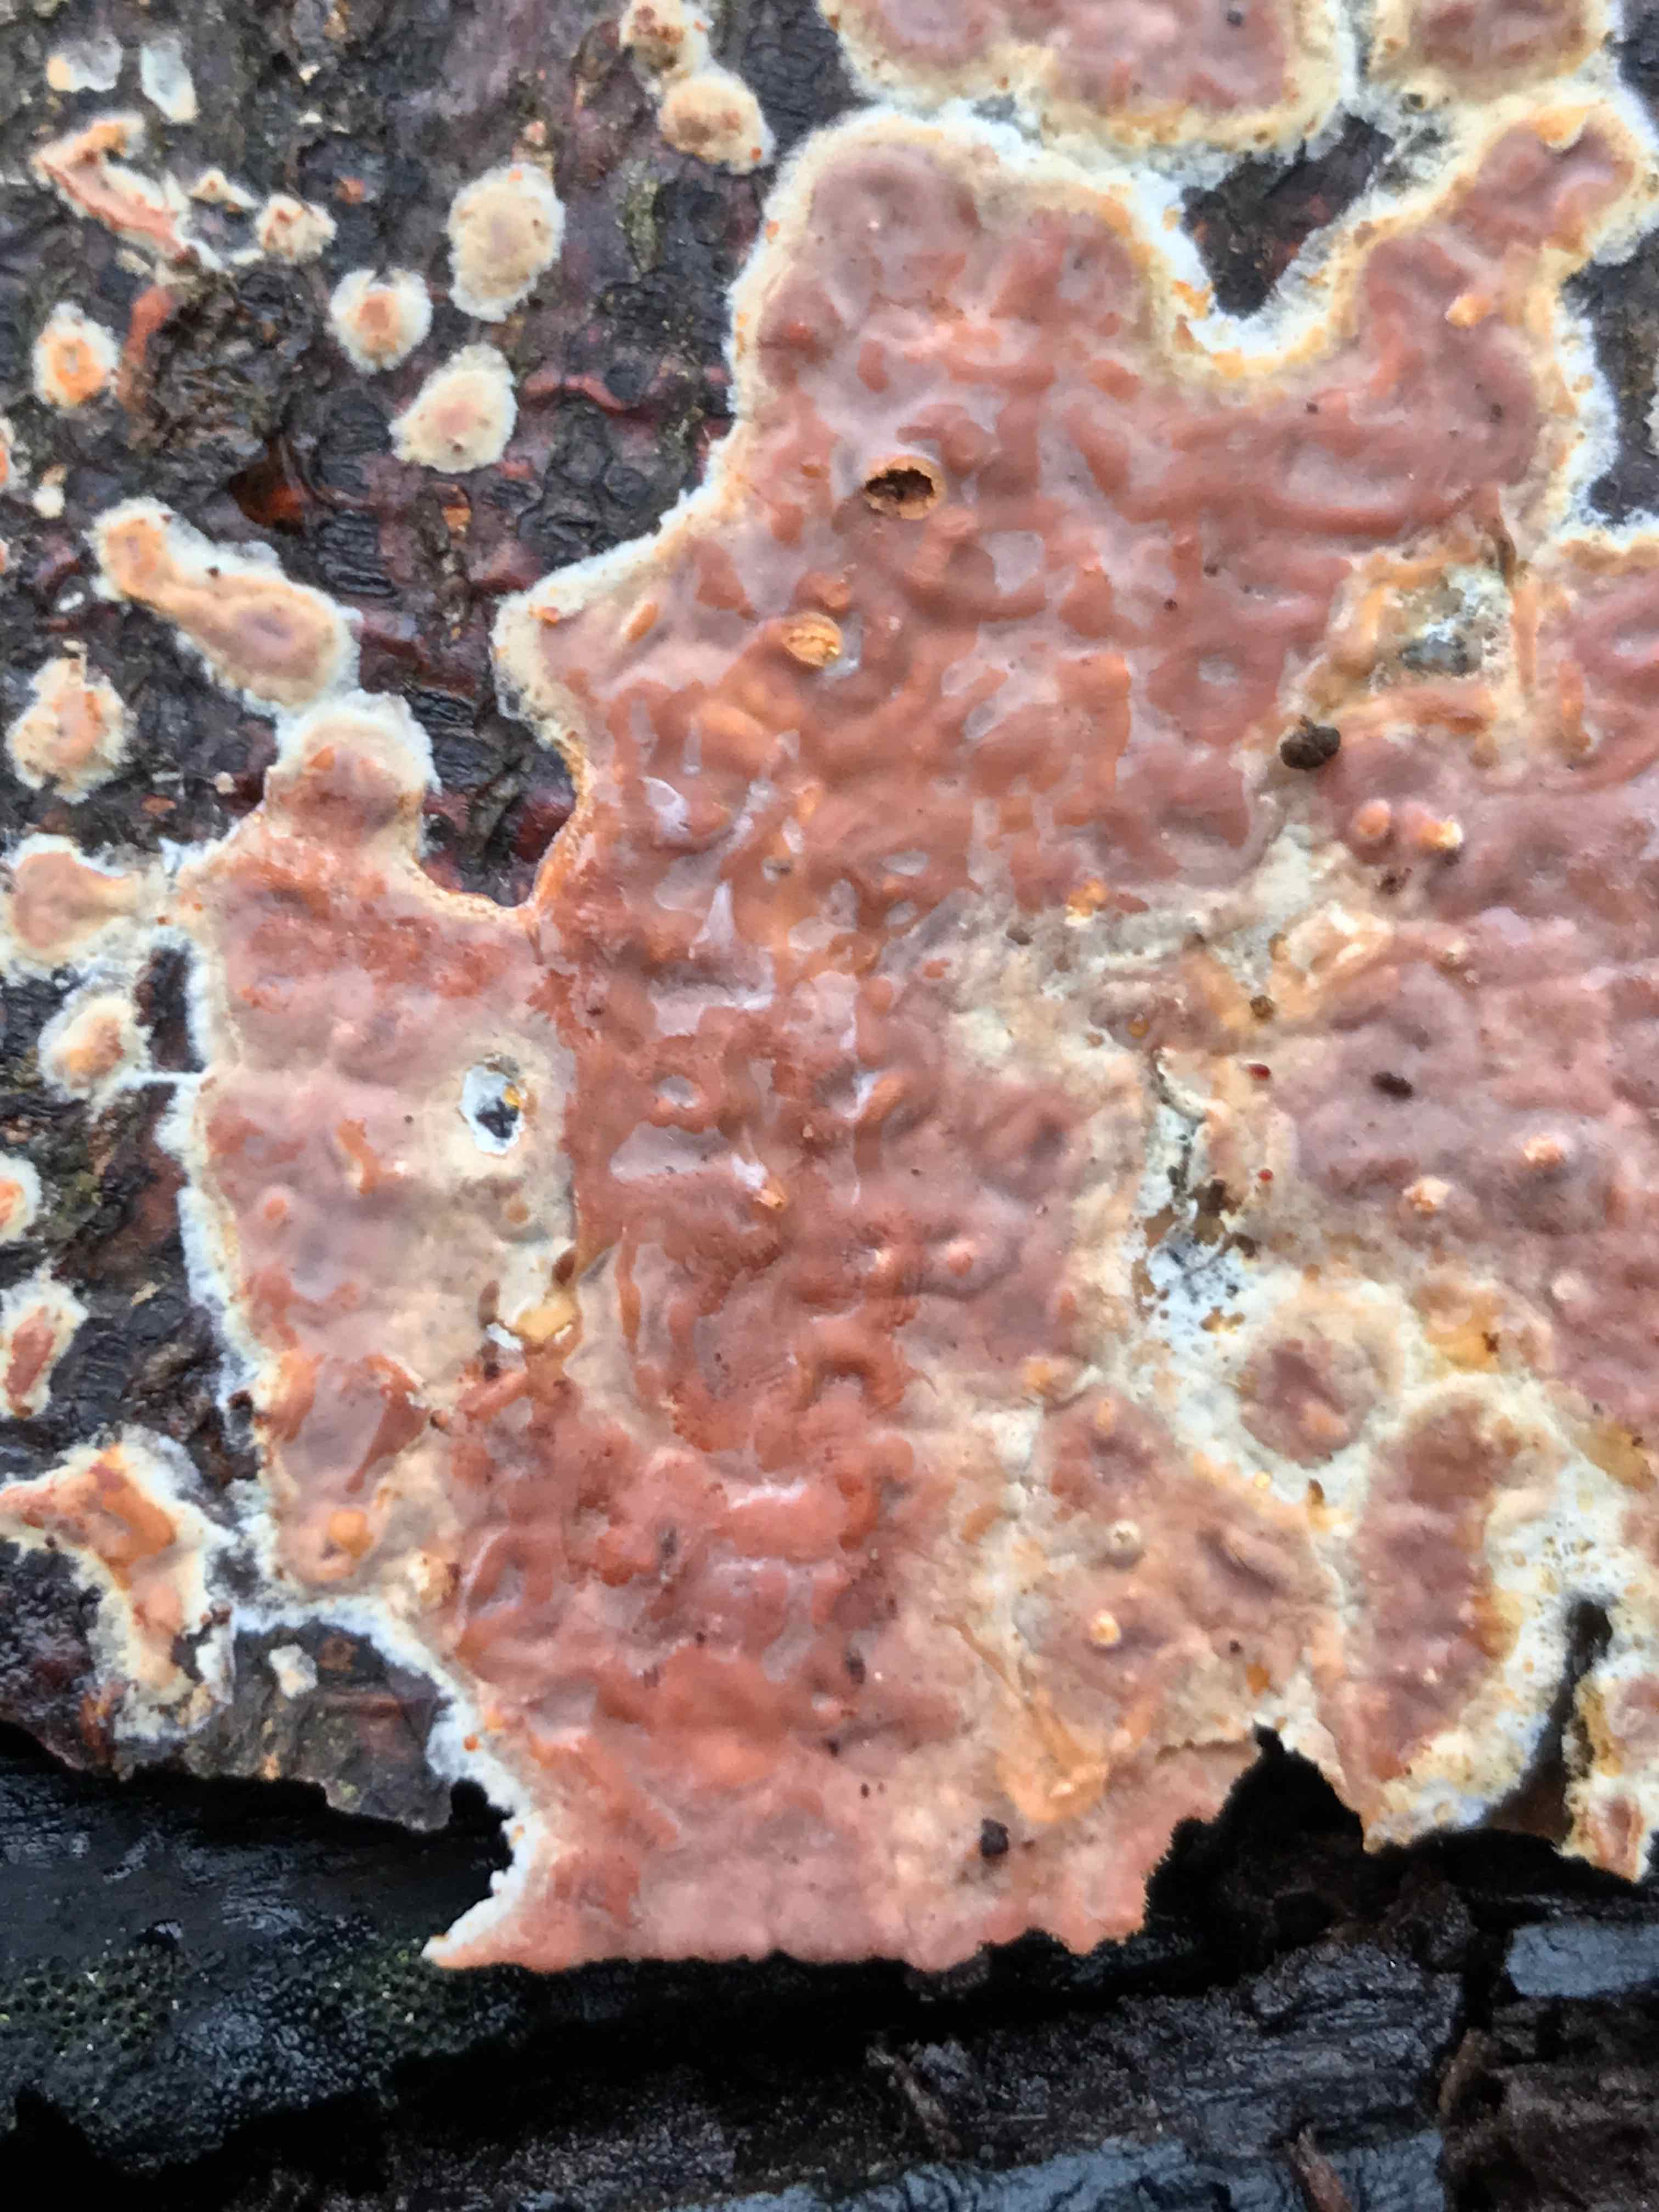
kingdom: Fungi
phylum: Basidiomycota
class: Agaricomycetes
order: Russulales
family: Peniophoraceae
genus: Peniophora
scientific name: Peniophora incarnata
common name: laksefarvet voksskind
